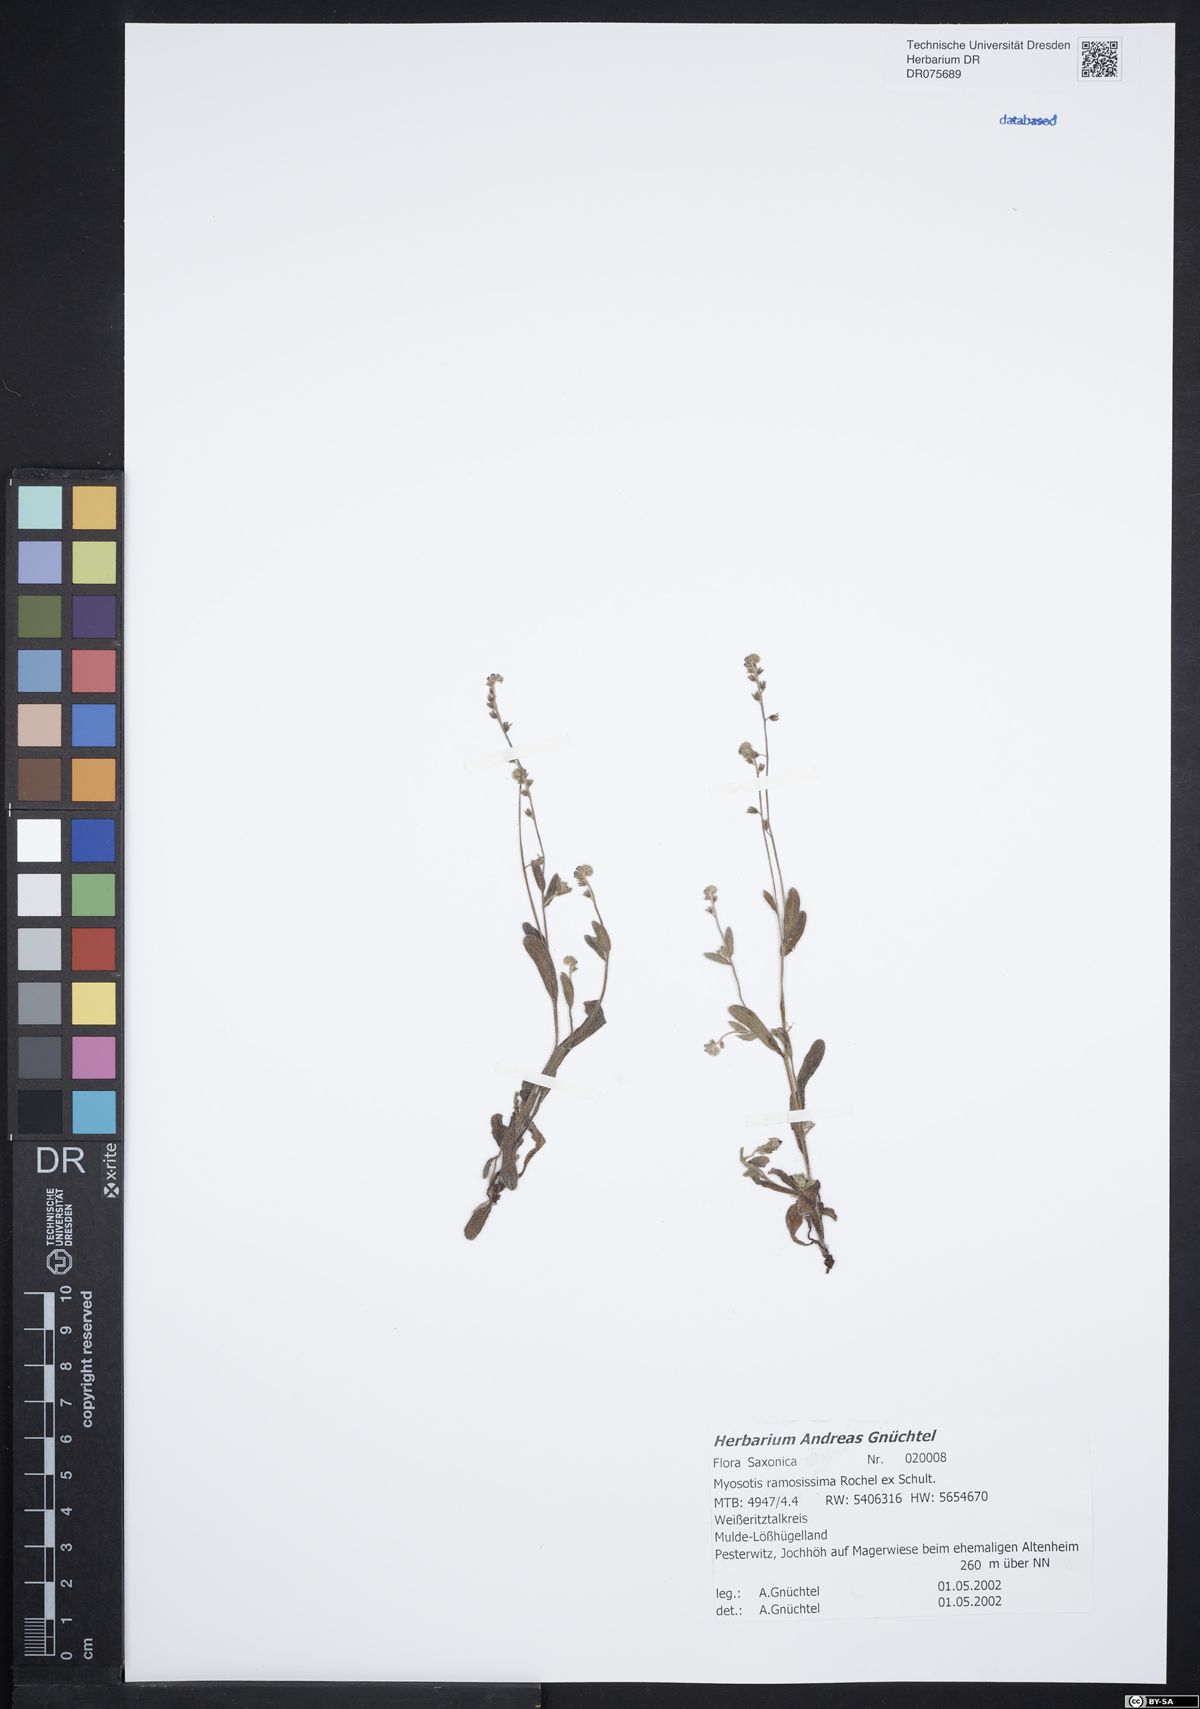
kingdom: Plantae
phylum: Tracheophyta
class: Magnoliopsida
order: Boraginales
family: Boraginaceae
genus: Myosotis
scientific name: Myosotis ramosissima
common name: Early forget-me-not
